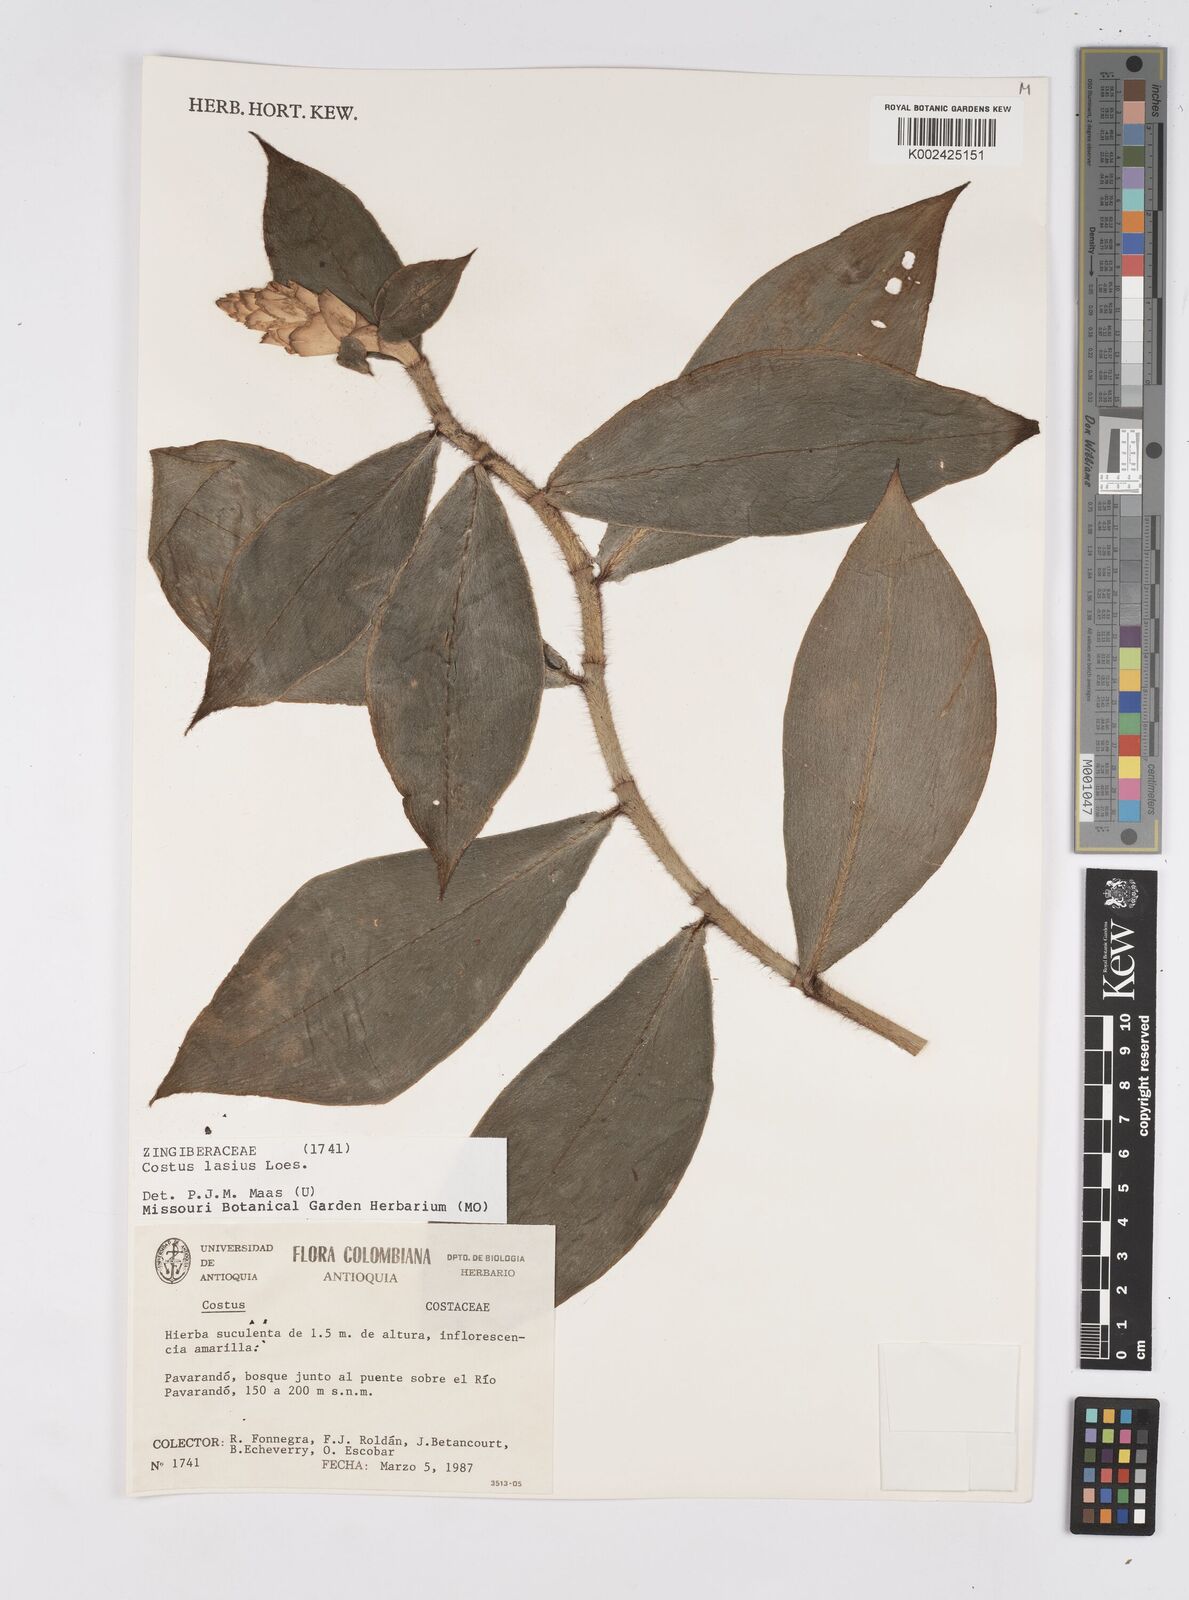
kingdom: Plantae
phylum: Tracheophyta
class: Liliopsida
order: Zingiberales
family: Costaceae
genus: Costus
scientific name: Costus lasius
